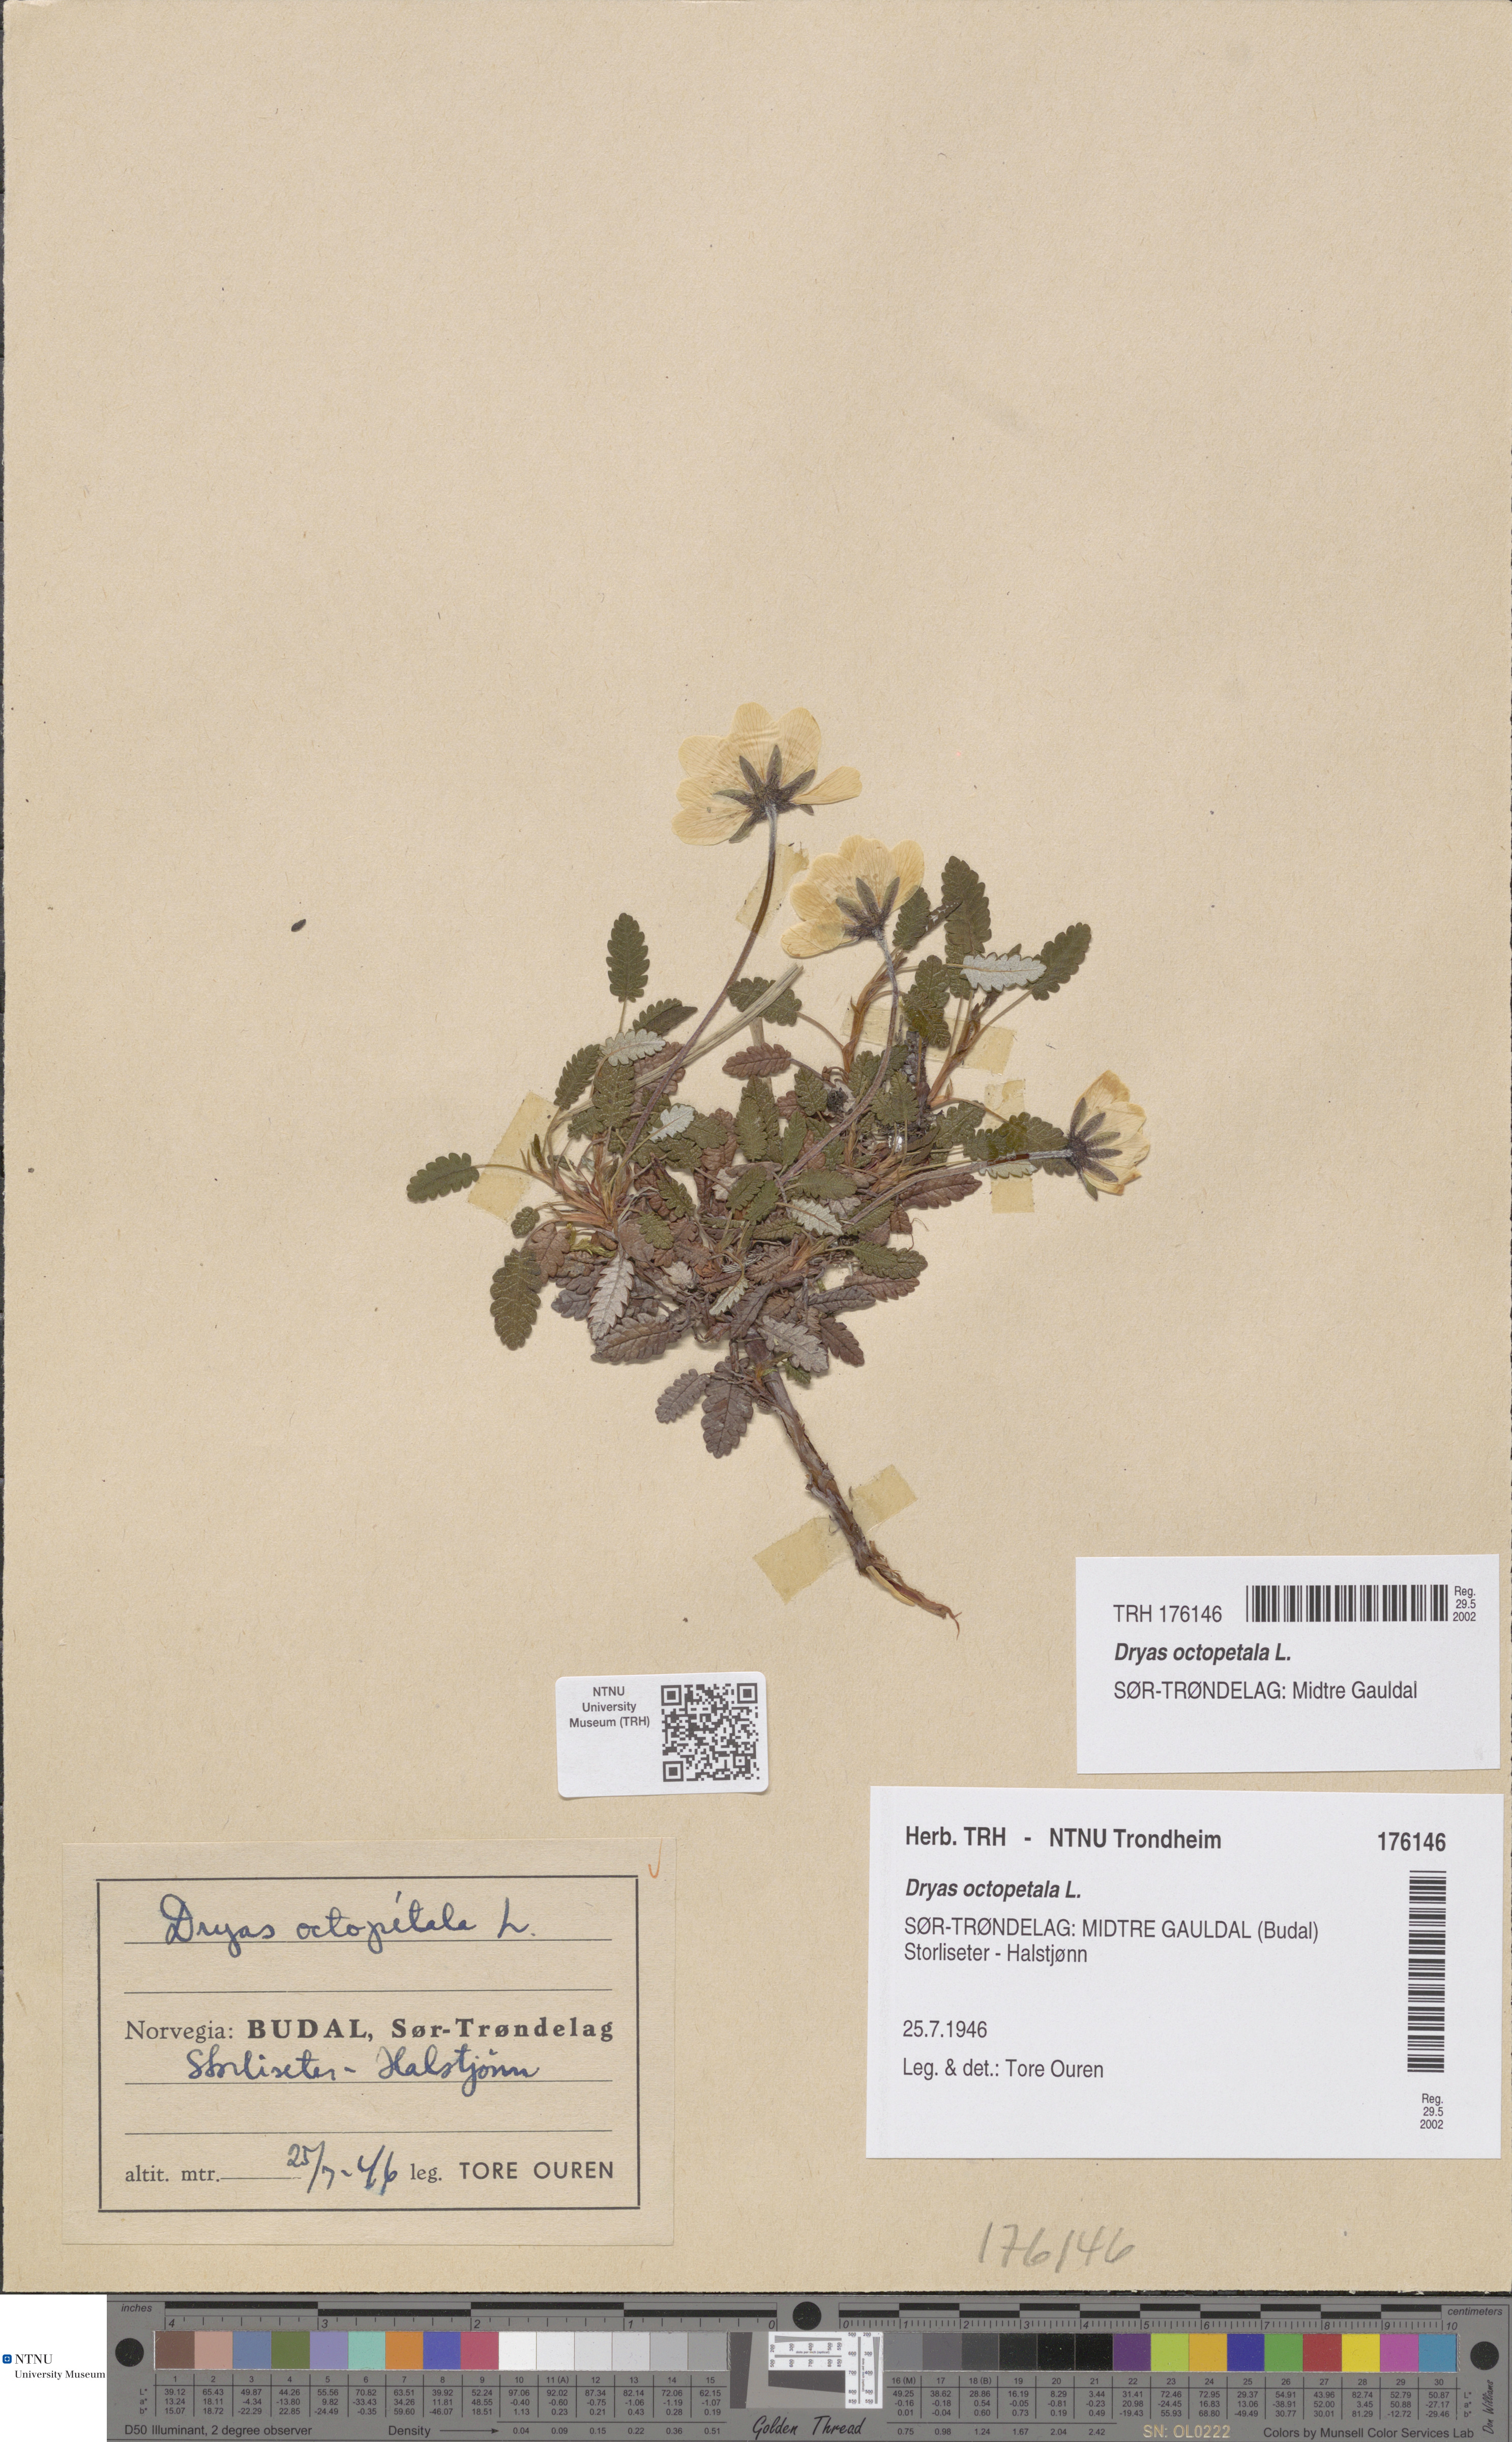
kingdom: Plantae
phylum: Tracheophyta
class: Magnoliopsida
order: Rosales
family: Rosaceae
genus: Dryas
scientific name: Dryas octopetala
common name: Eight-petal mountain-avens
